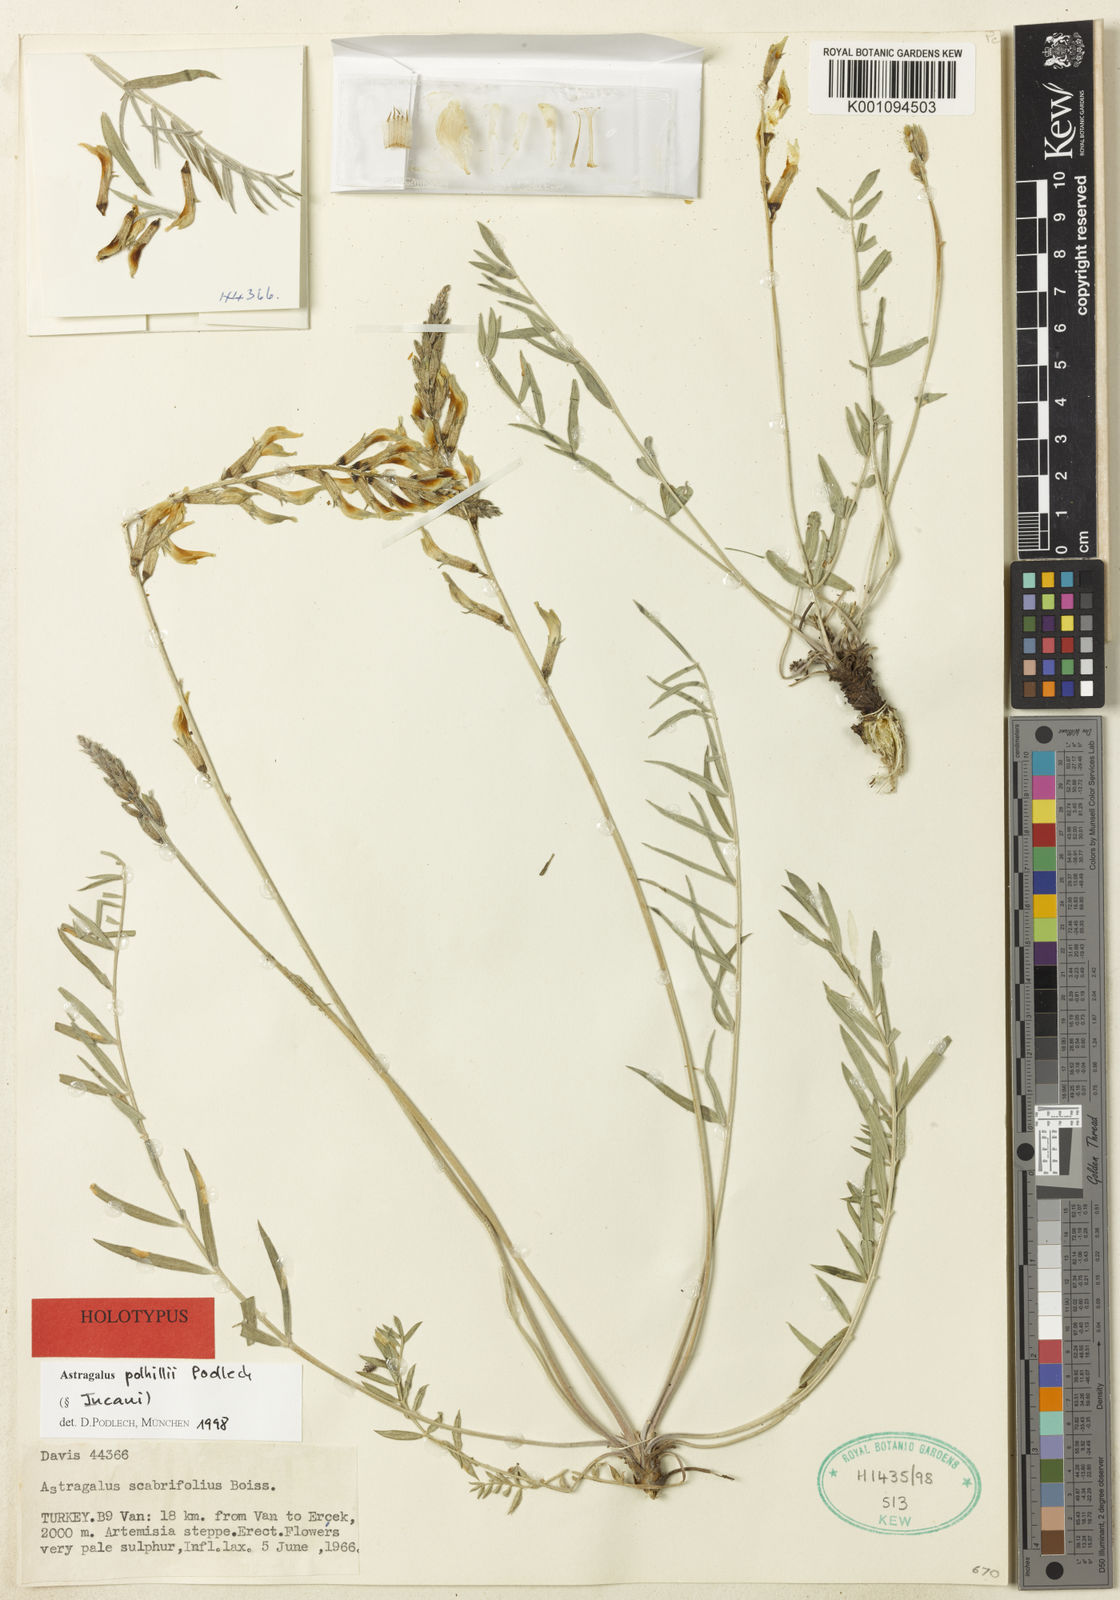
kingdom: Plantae
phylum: Tracheophyta
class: Magnoliopsida
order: Fabales
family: Fabaceae
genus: Astragalus
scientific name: Astragalus
